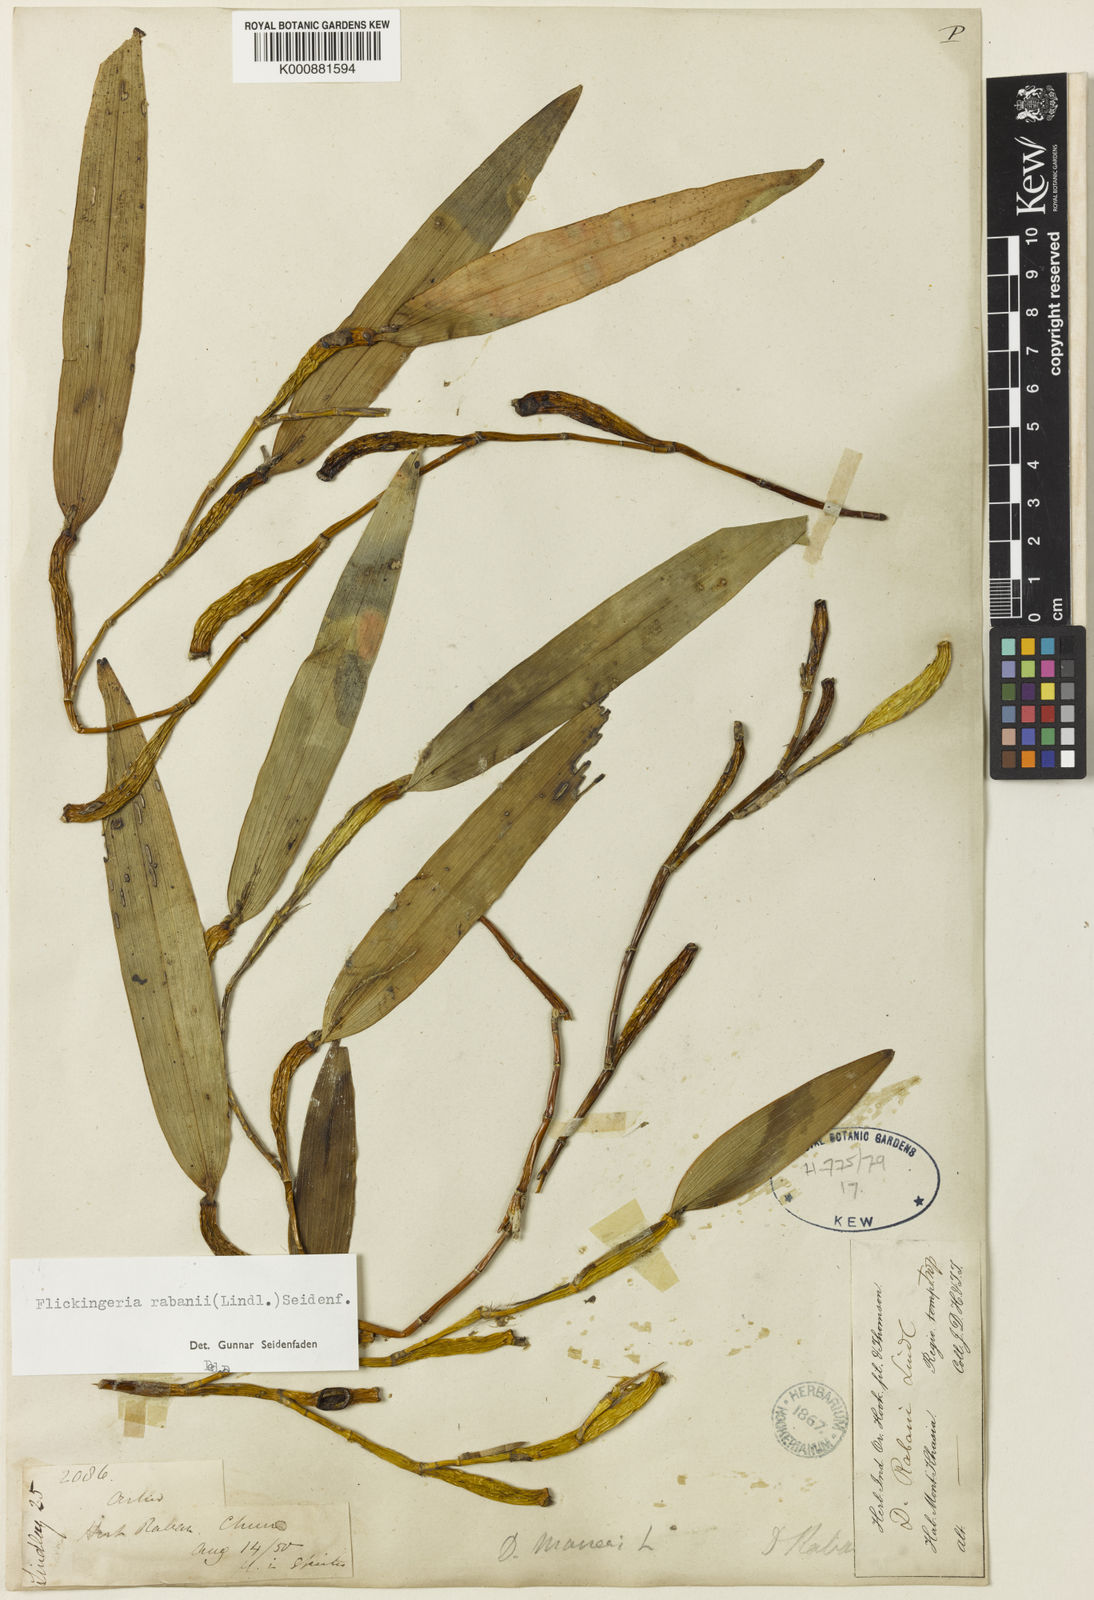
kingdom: Plantae
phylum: Tracheophyta
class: Liliopsida
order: Asparagales
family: Orchidaceae
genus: Dendrobium
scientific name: Dendrobium rabanii
